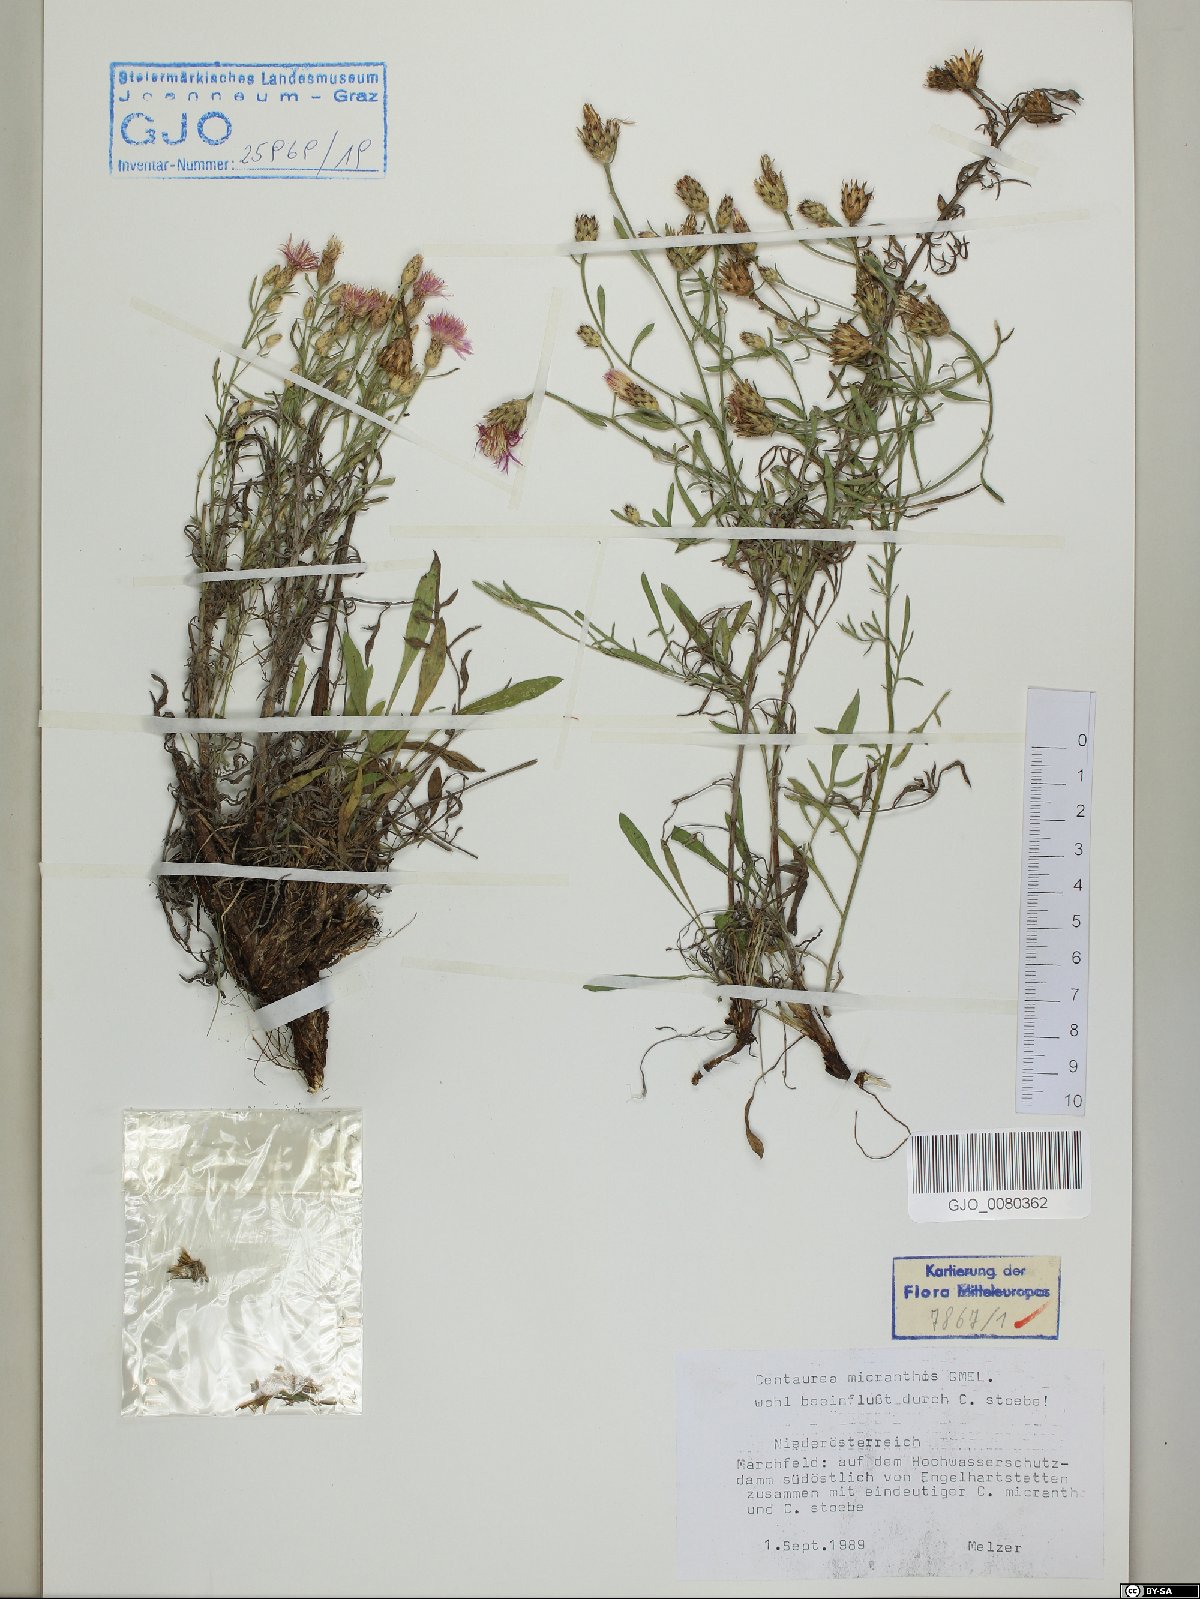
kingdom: Plantae
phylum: Tracheophyta
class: Magnoliopsida
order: Asterales
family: Asteraceae
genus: Centaurea
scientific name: Centaurea micranthos
